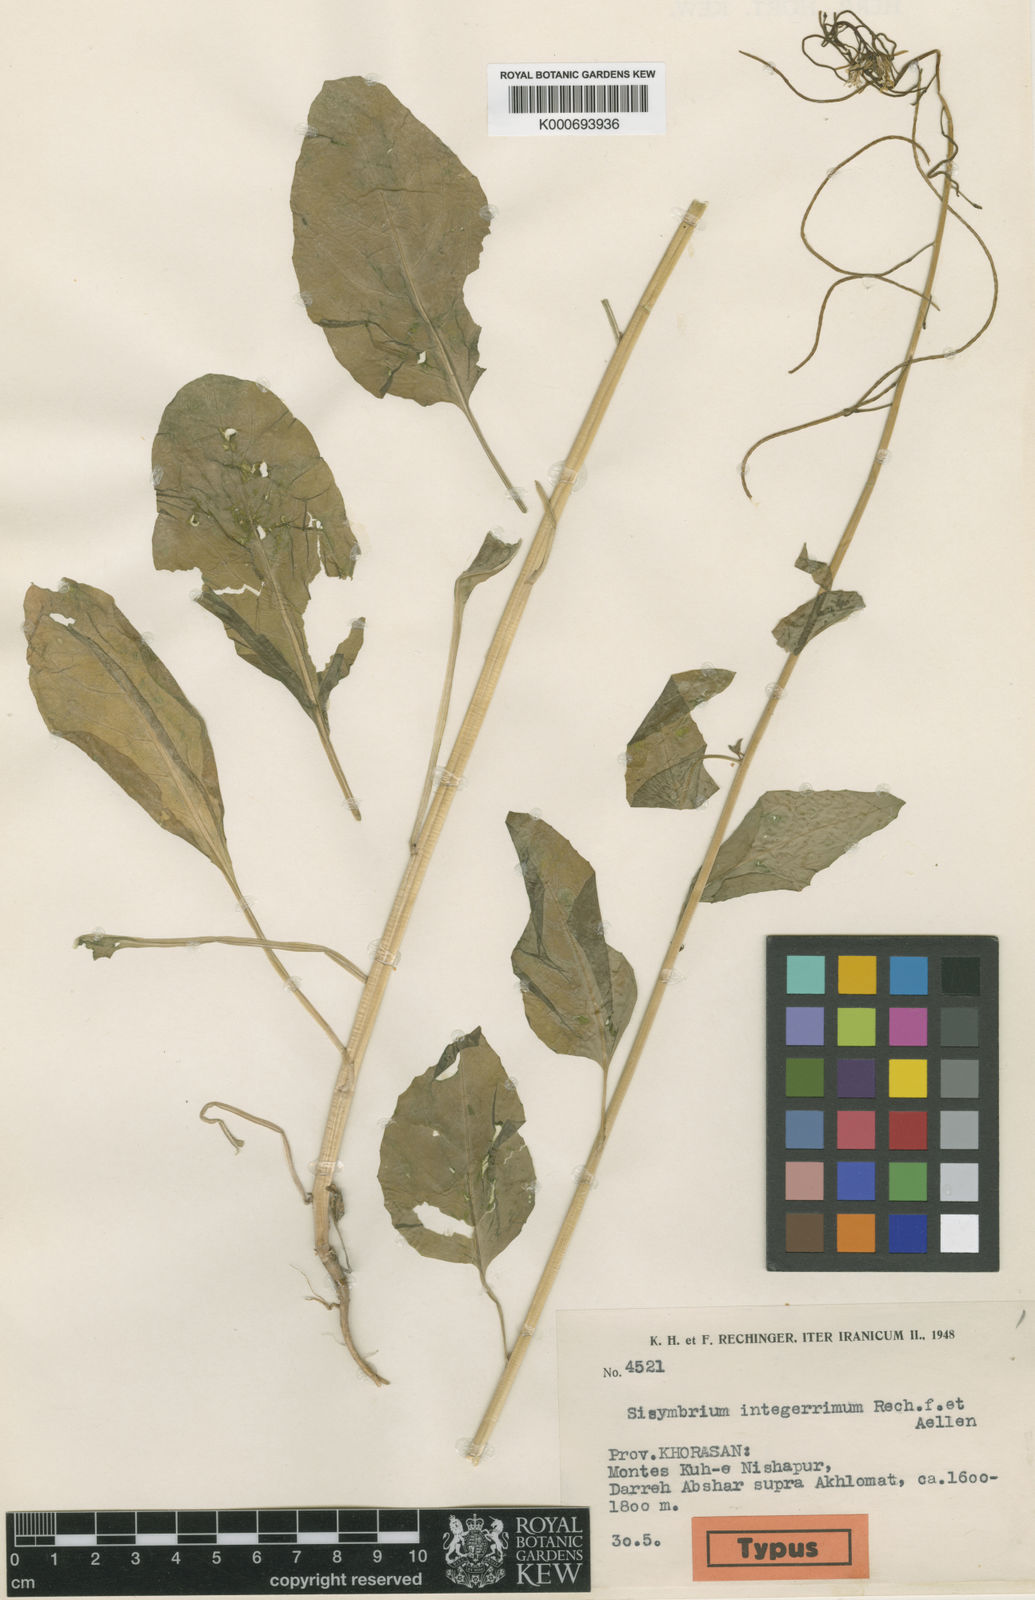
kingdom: Plantae
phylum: Tracheophyta
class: Magnoliopsida
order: Brassicales
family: Brassicaceae
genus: Sisymbrium
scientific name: Sisymbrium integerrimum
